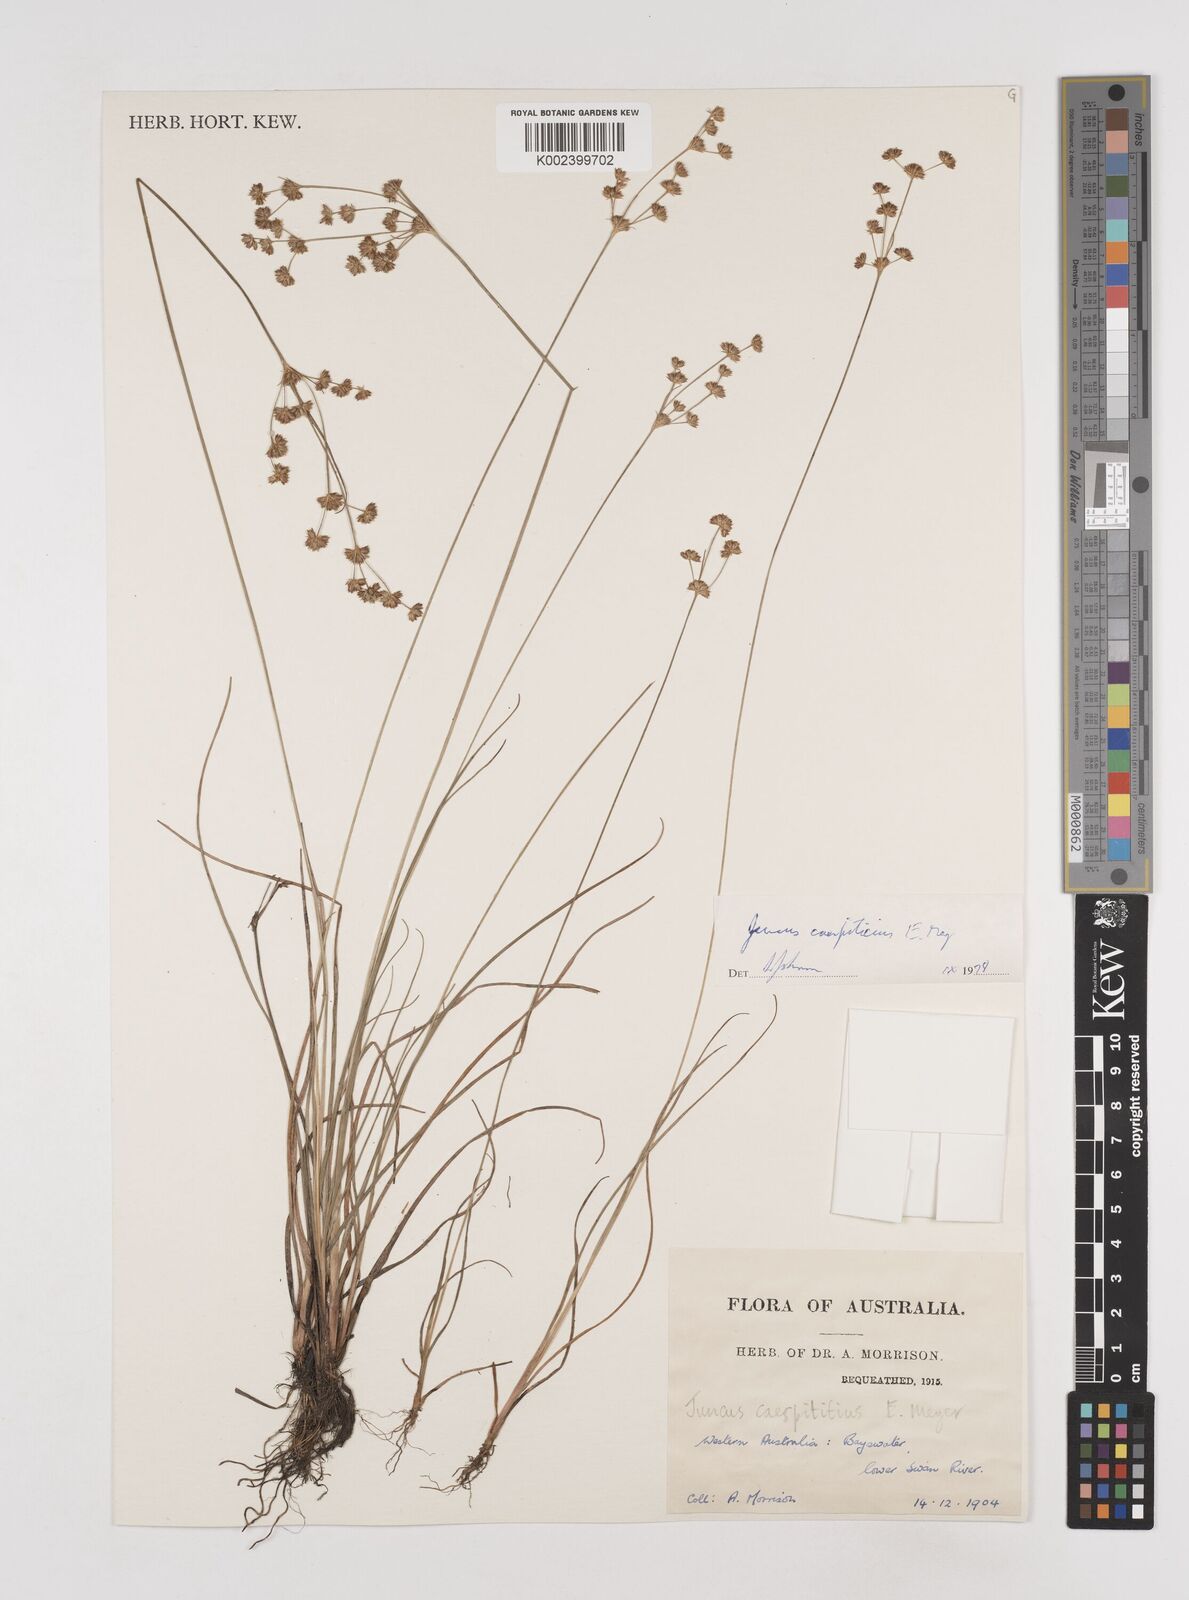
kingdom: Plantae
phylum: Tracheophyta
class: Liliopsida
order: Poales
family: Juncaceae
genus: Juncus
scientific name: Juncus caespiticius
